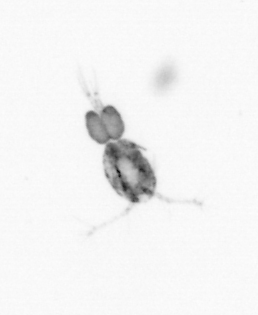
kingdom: Animalia
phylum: Arthropoda
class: Copepoda
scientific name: Copepoda
